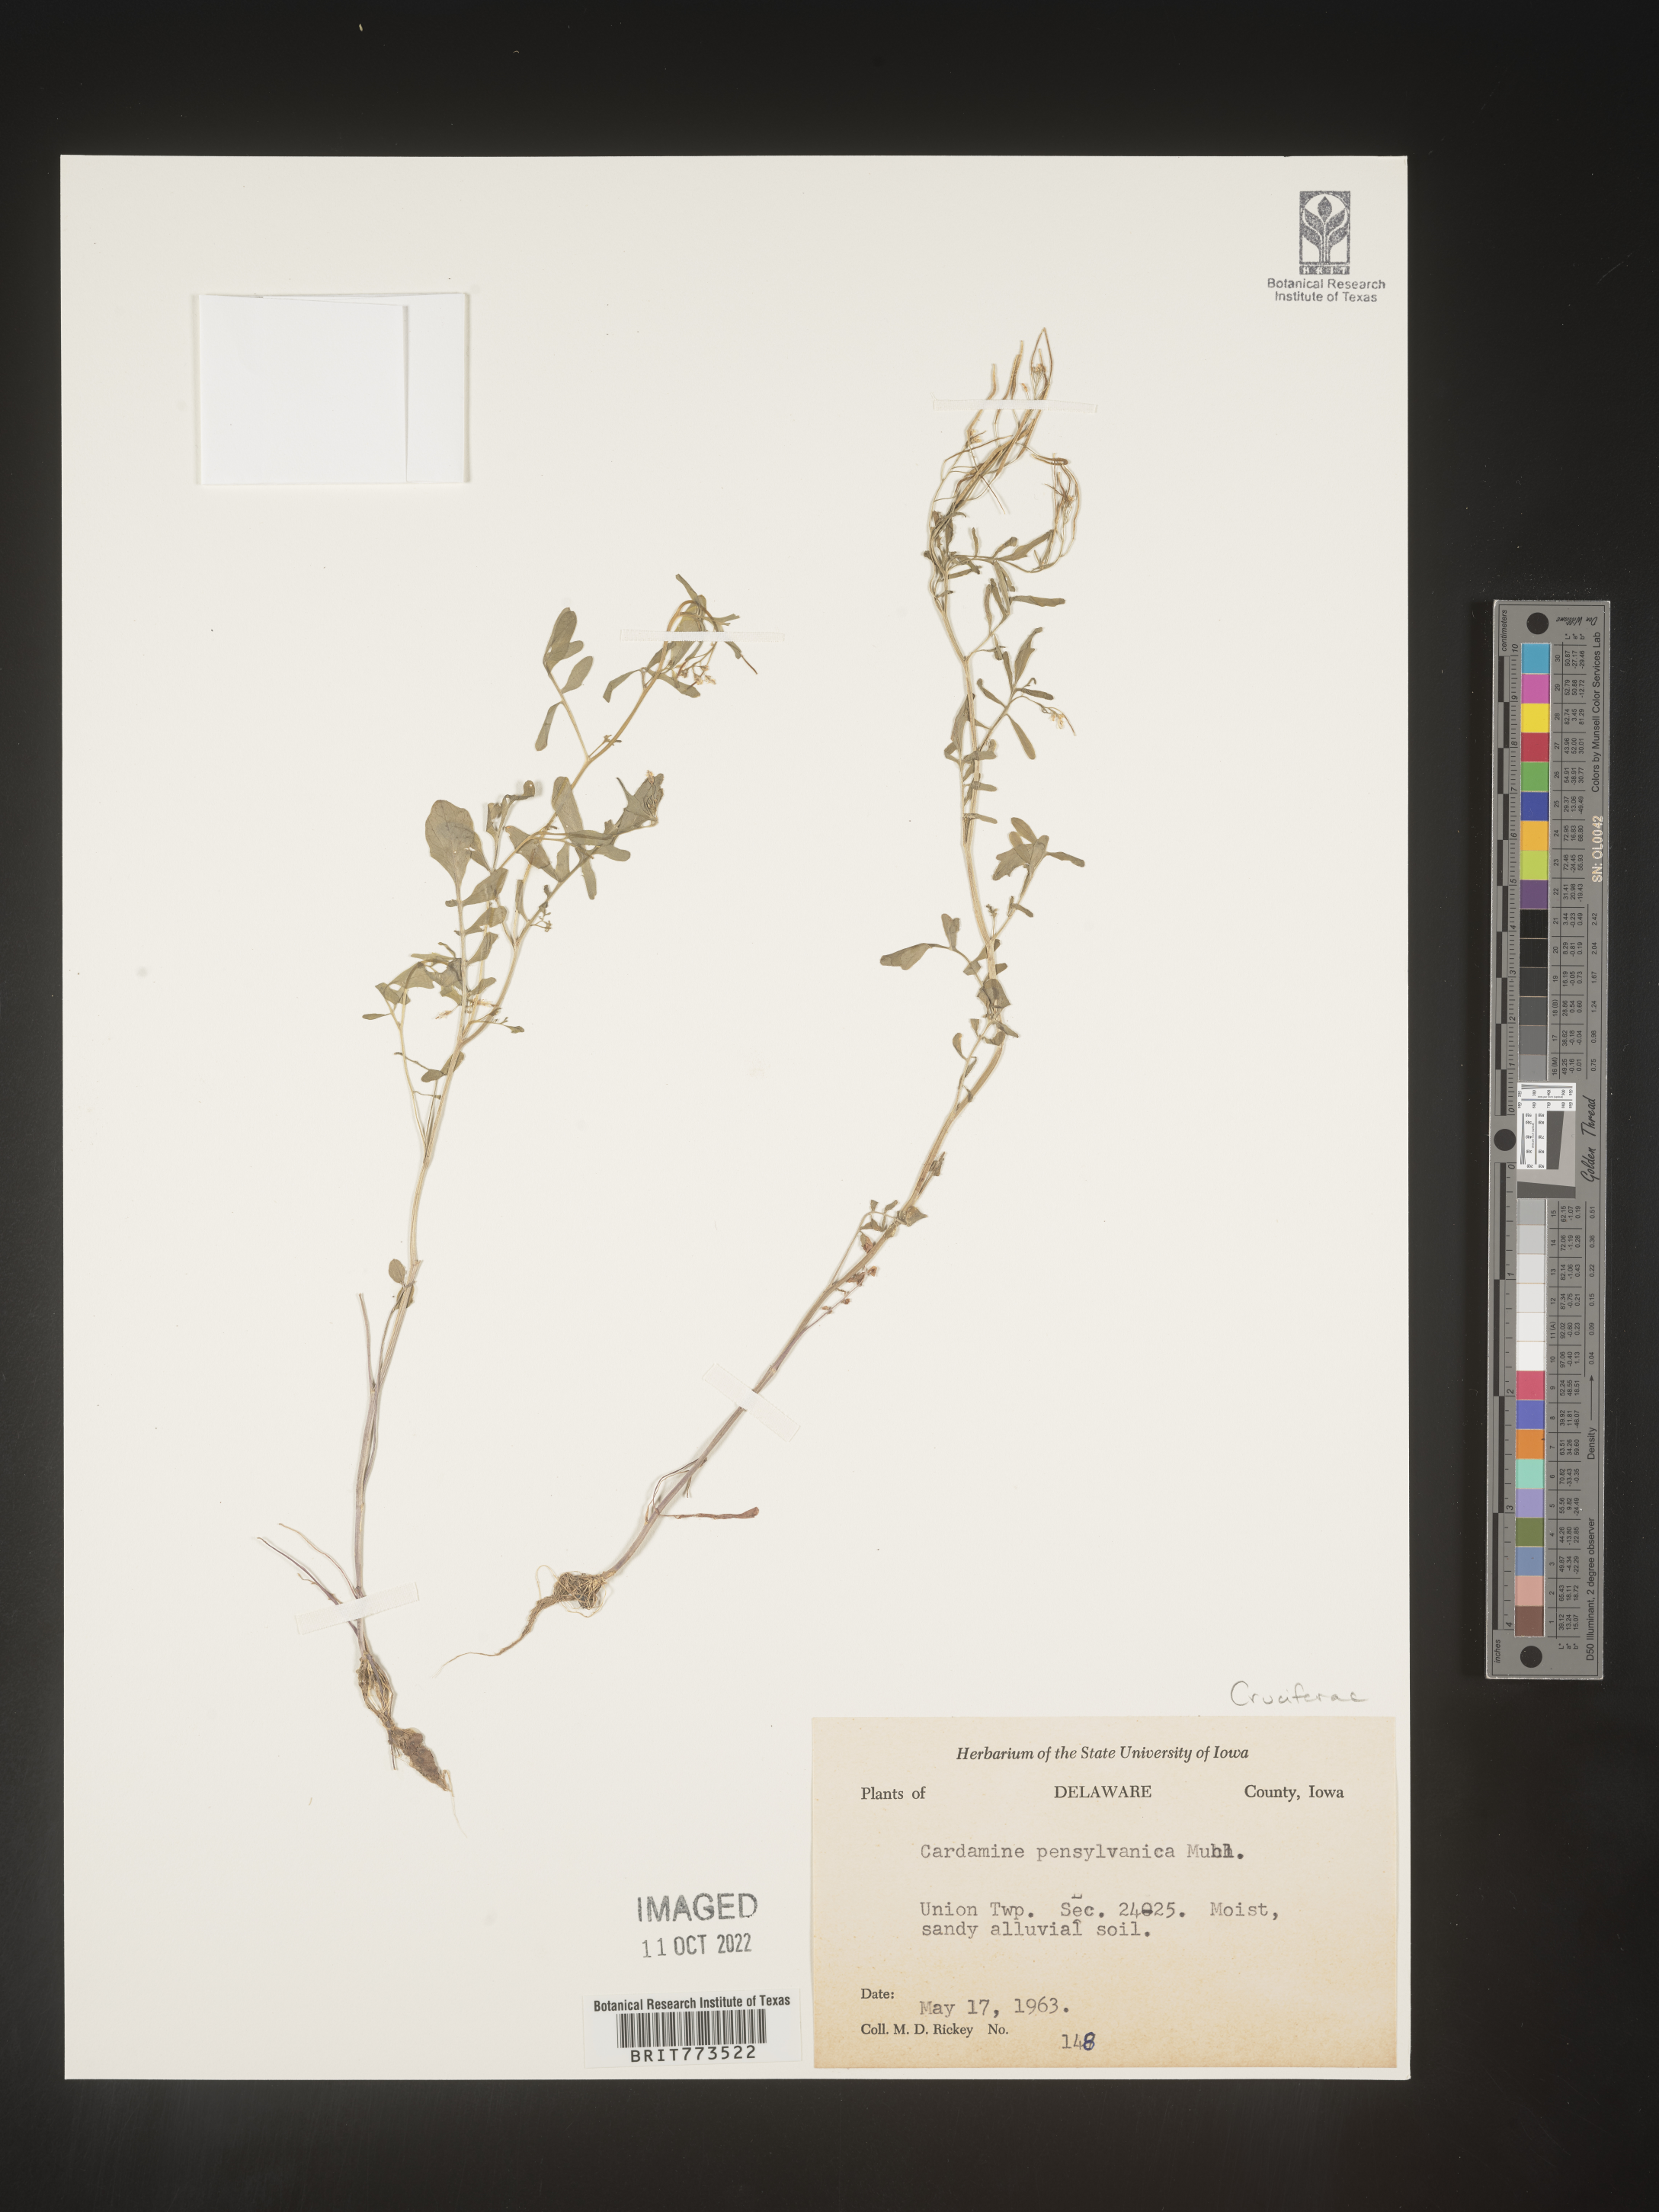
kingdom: Plantae
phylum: Tracheophyta
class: Magnoliopsida
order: Brassicales
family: Brassicaceae
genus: Cardamine
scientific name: Cardamine pensylvanica
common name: Pennsylvania bittercress
